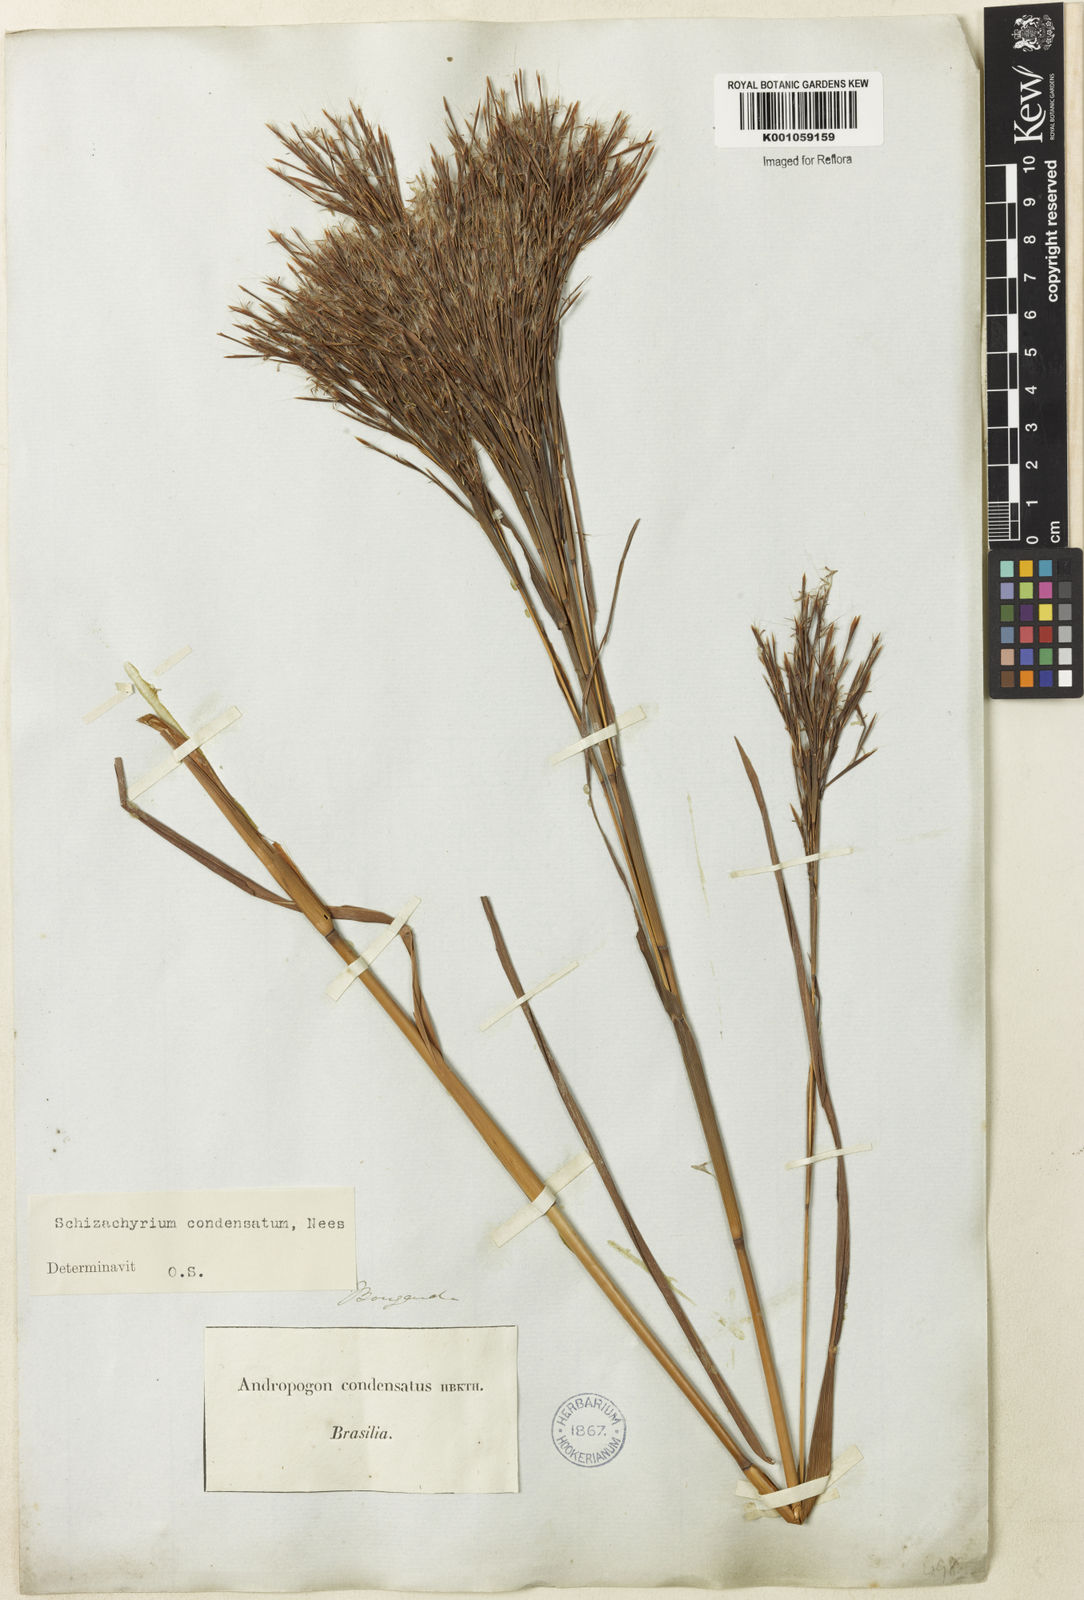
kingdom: Plantae
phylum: Tracheophyta
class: Liliopsida
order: Poales
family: Poaceae
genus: Schizachyrium
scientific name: Schizachyrium condensatum
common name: Bush beardgrass
